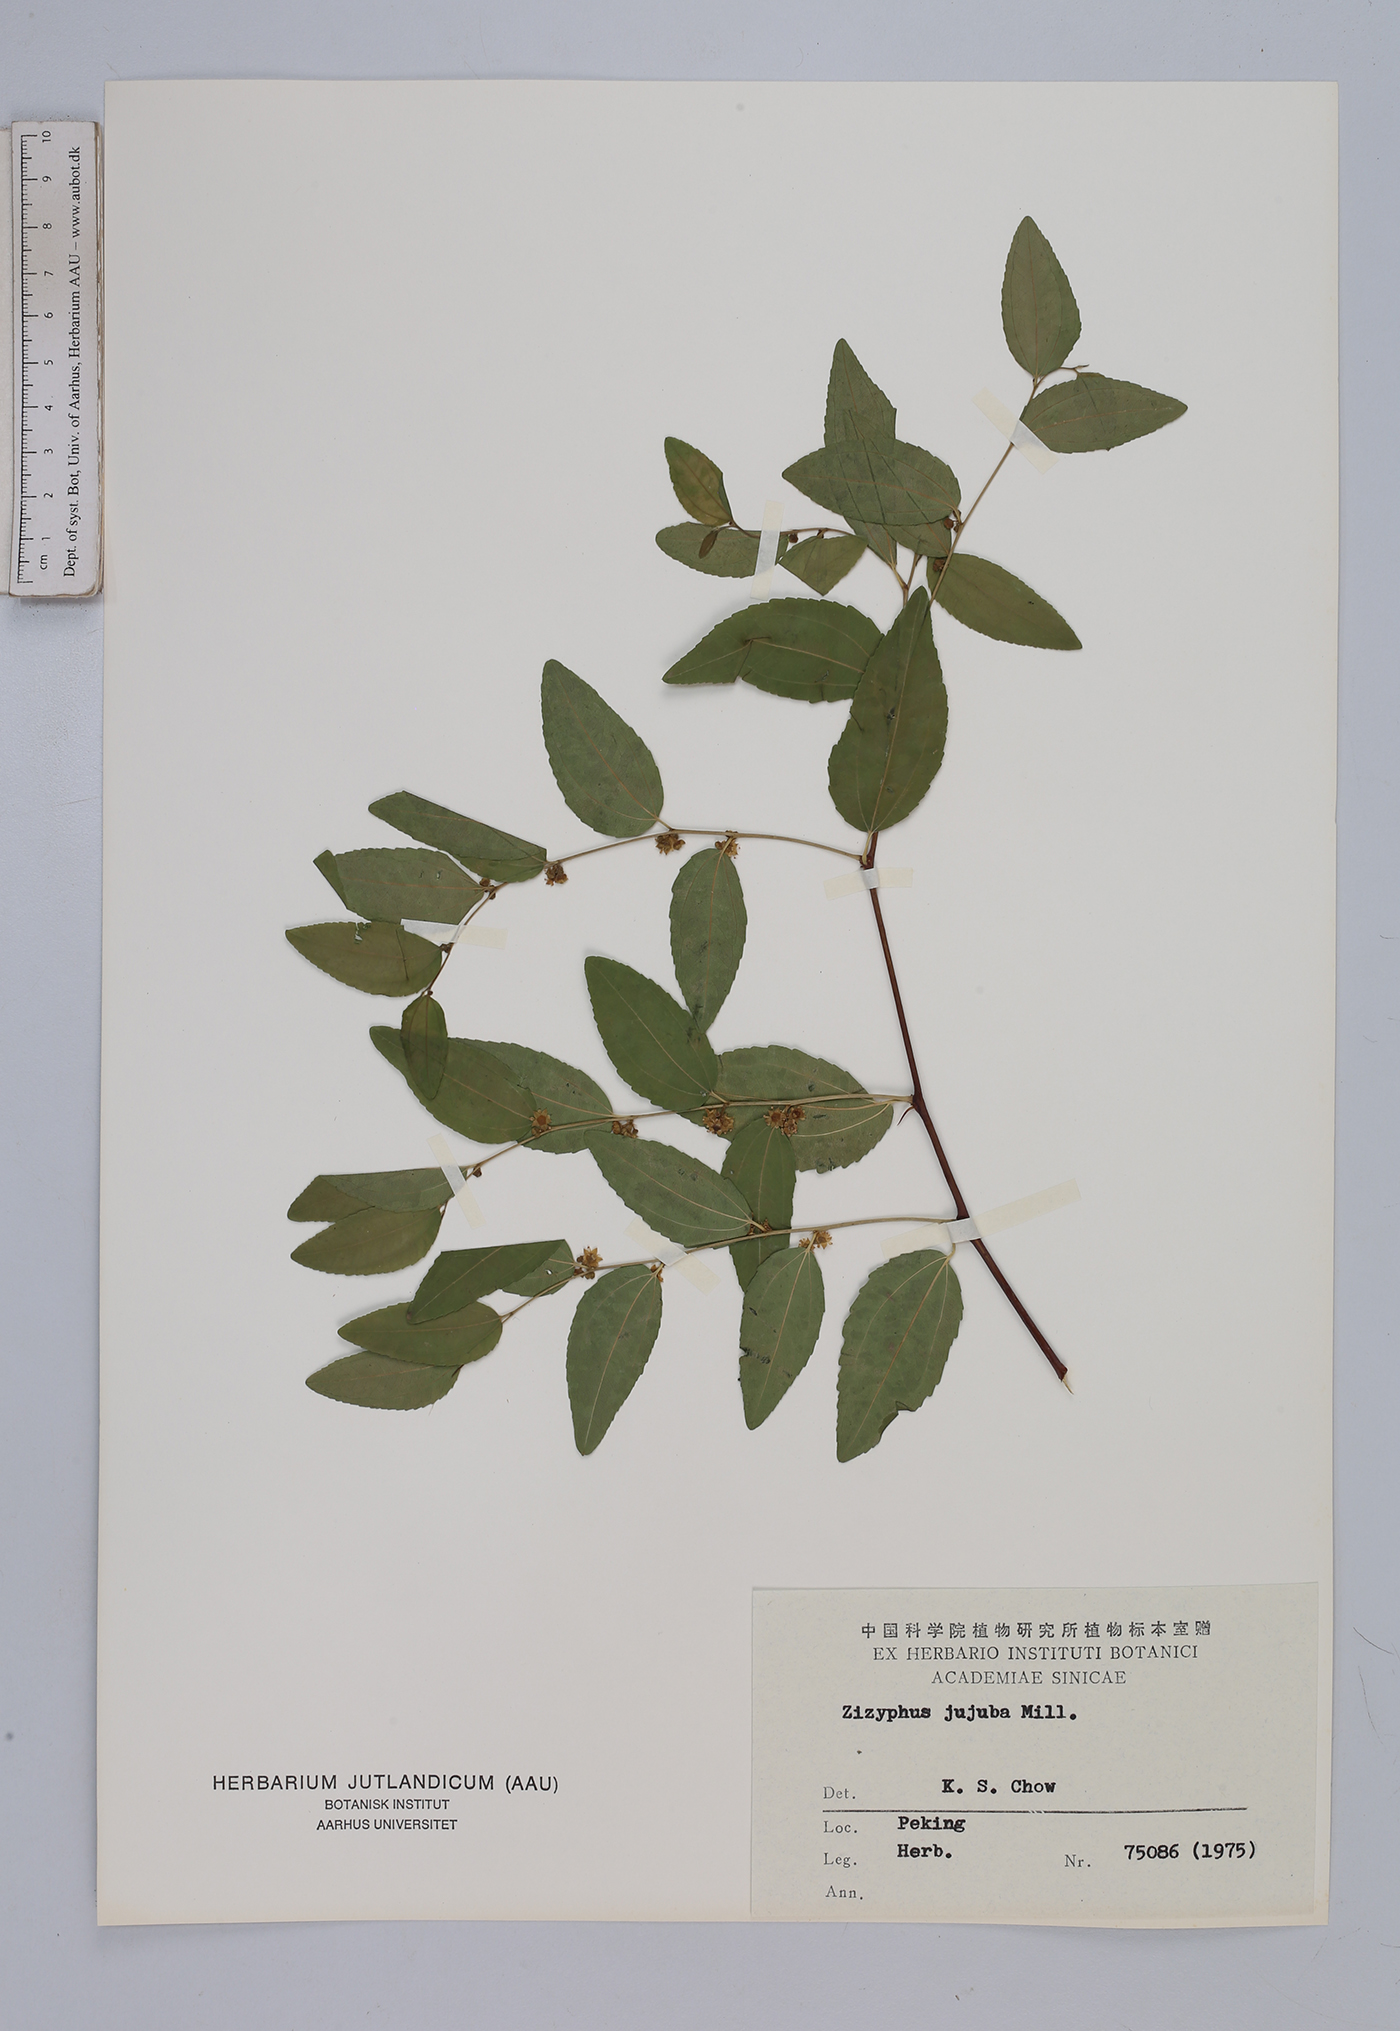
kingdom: Plantae
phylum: Tracheophyta
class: Magnoliopsida
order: Rosales
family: Rhamnaceae
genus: Ziziphus
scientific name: Ziziphus jujuba
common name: Jujube red date
